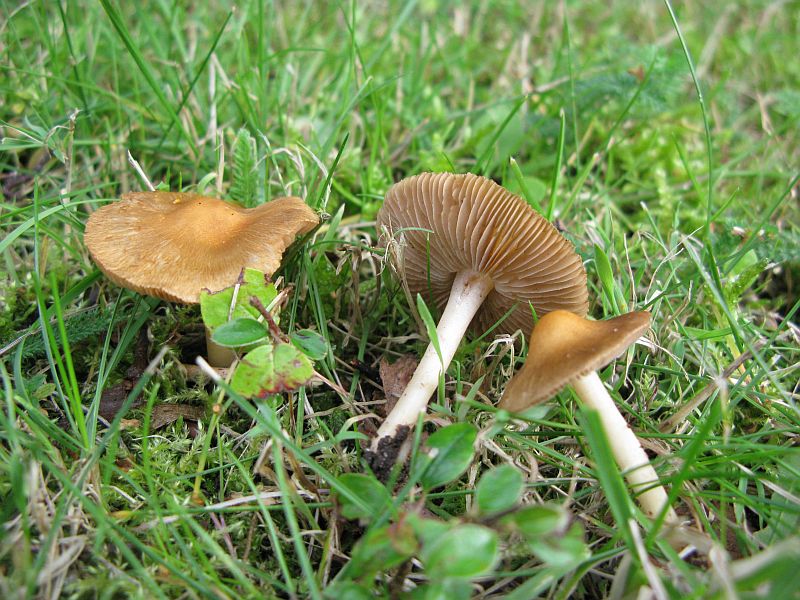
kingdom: Fungi
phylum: Basidiomycota
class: Agaricomycetes
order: Agaricales
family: Inocybaceae
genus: Inocybe
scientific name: Inocybe
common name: trævlhat
